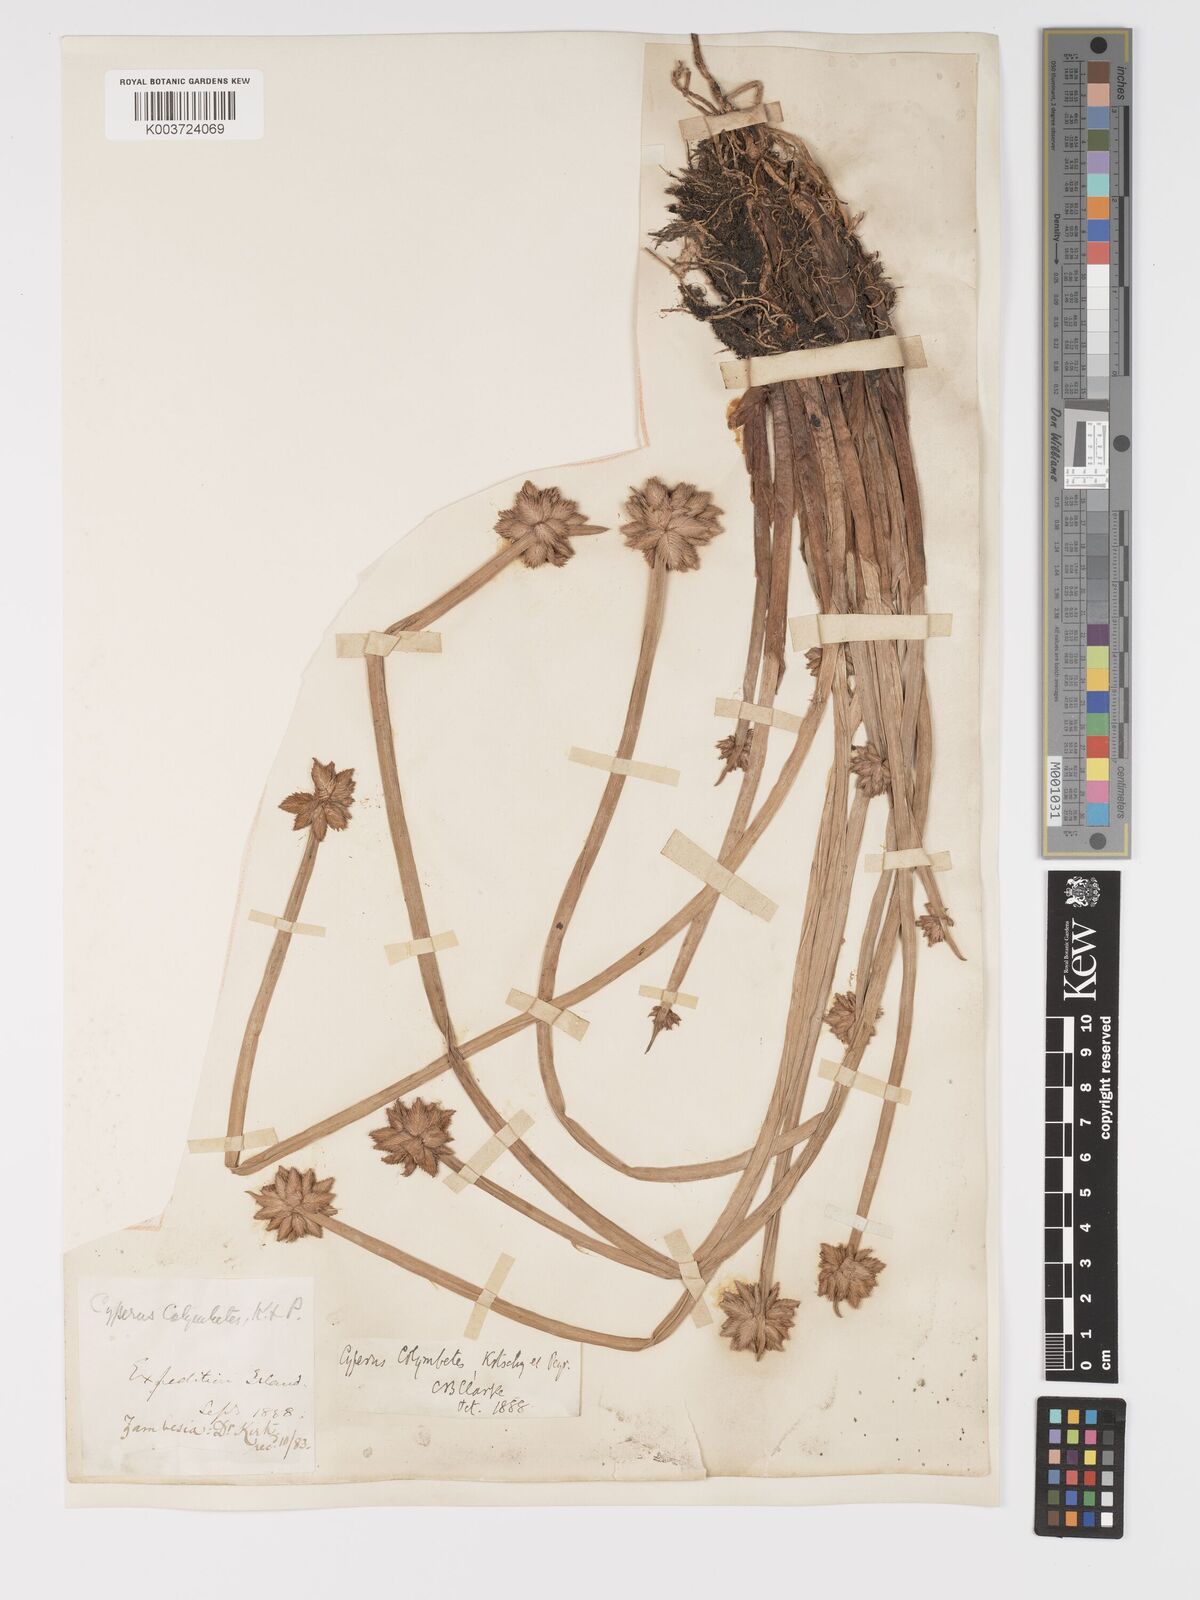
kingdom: Plantae
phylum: Tracheophyta
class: Liliopsida
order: Poales
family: Cyperaceae
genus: Cyperus
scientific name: Cyperus colymbetes
